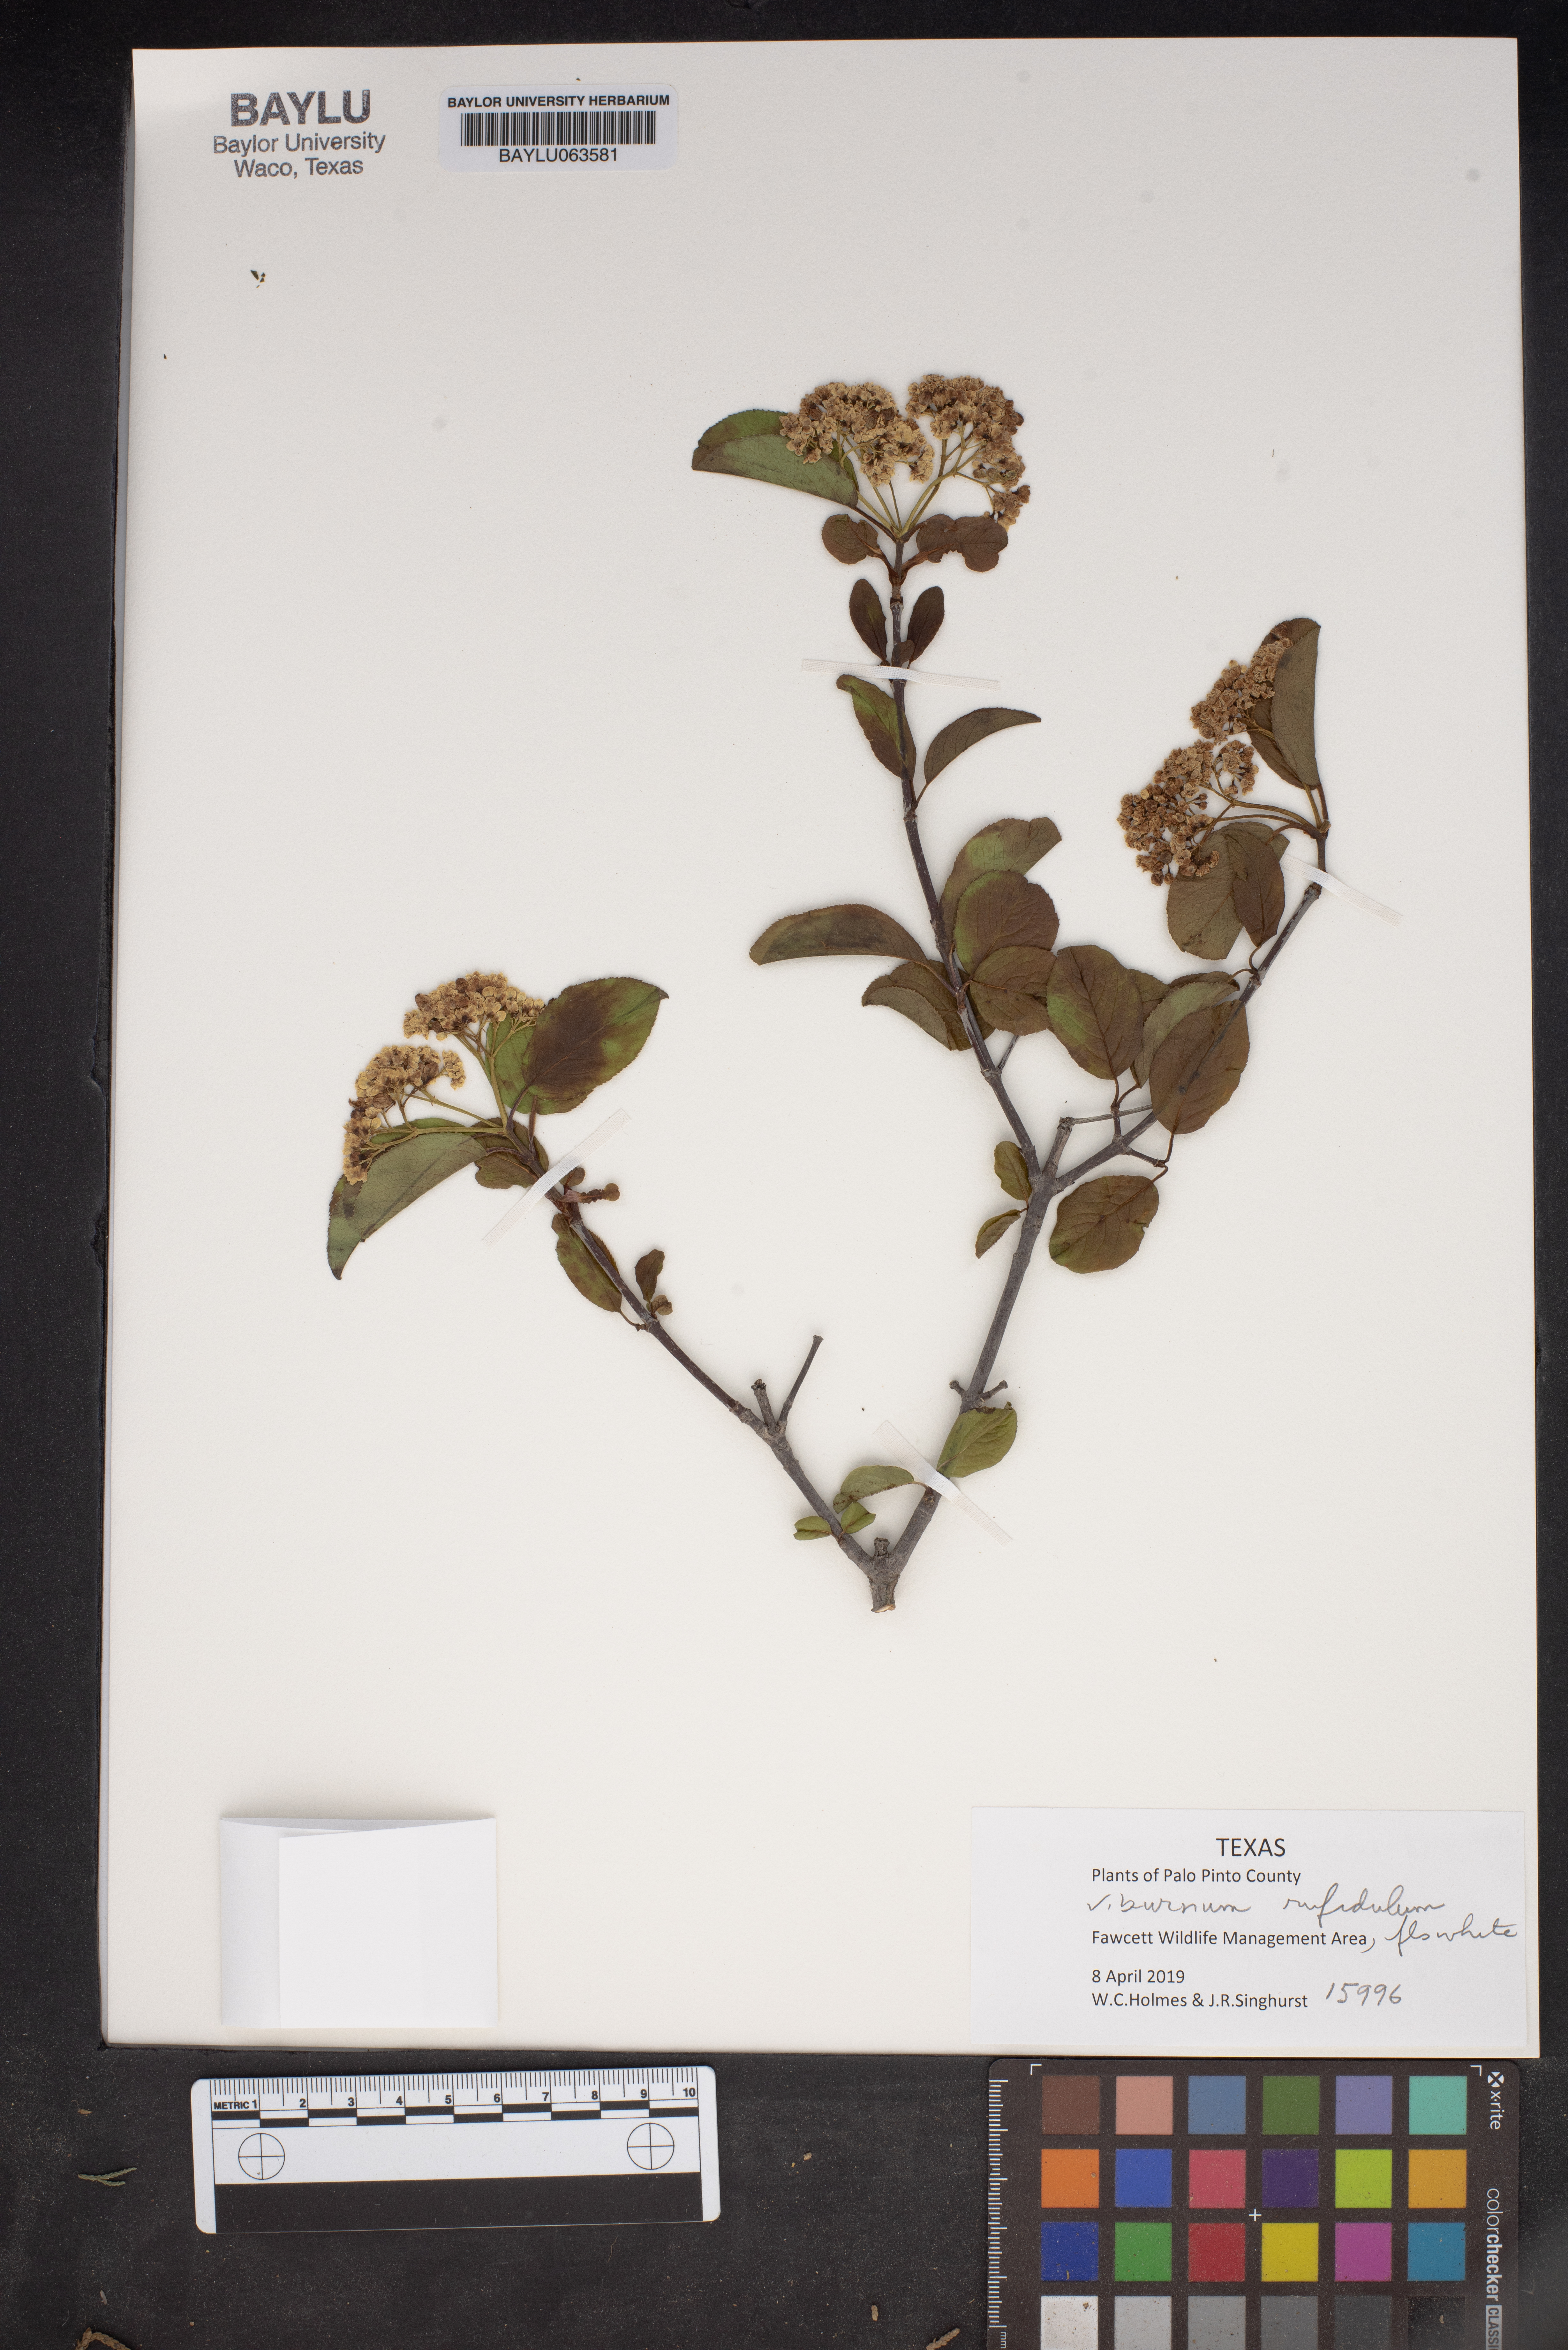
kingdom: Plantae
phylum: Tracheophyta
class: Magnoliopsida
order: Dipsacales
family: Viburnaceae
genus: Viburnum
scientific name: Viburnum rufidulum
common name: Blue haw
